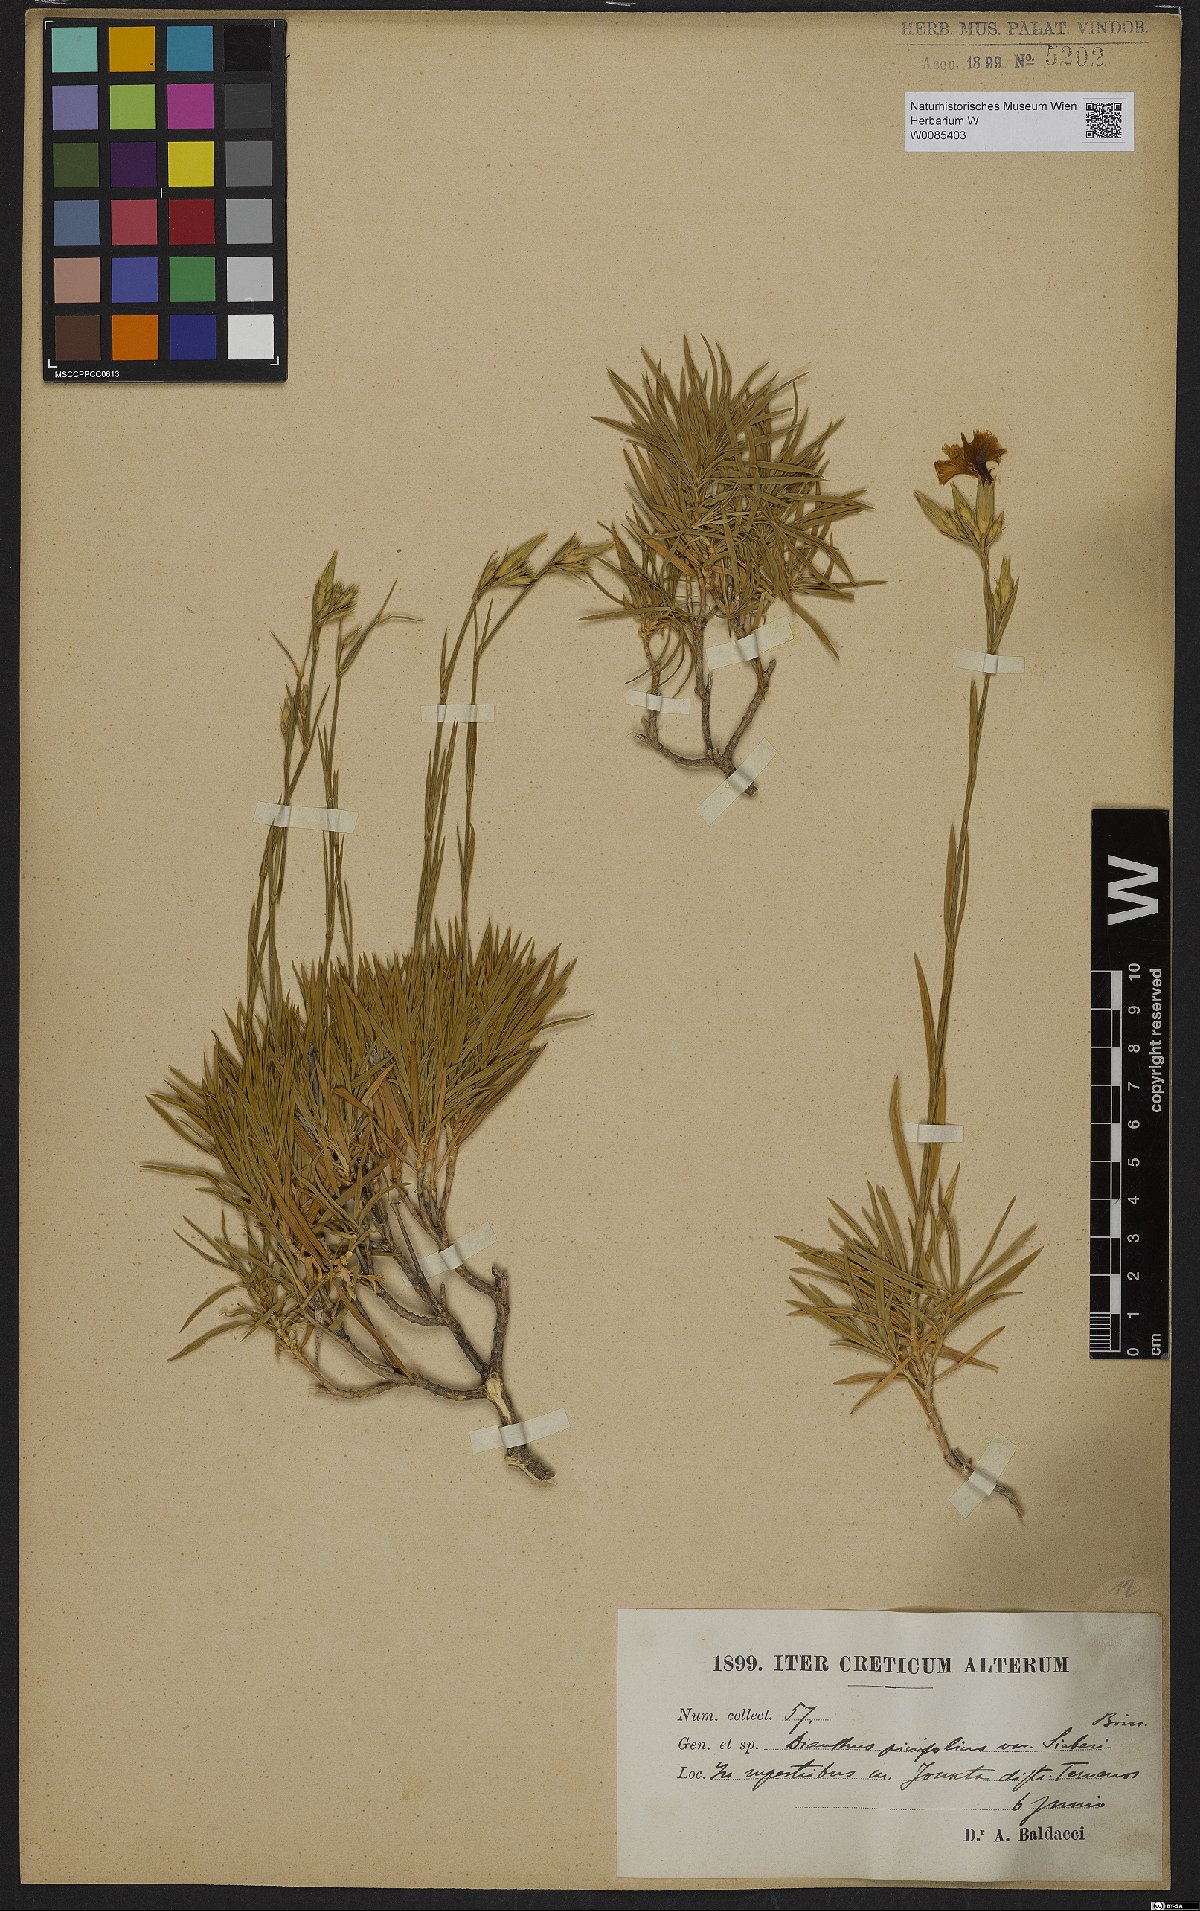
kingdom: Plantae
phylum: Tracheophyta
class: Magnoliopsida
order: Caryophyllales
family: Caryophyllaceae
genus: Dianthus
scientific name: Dianthus pinifolius
